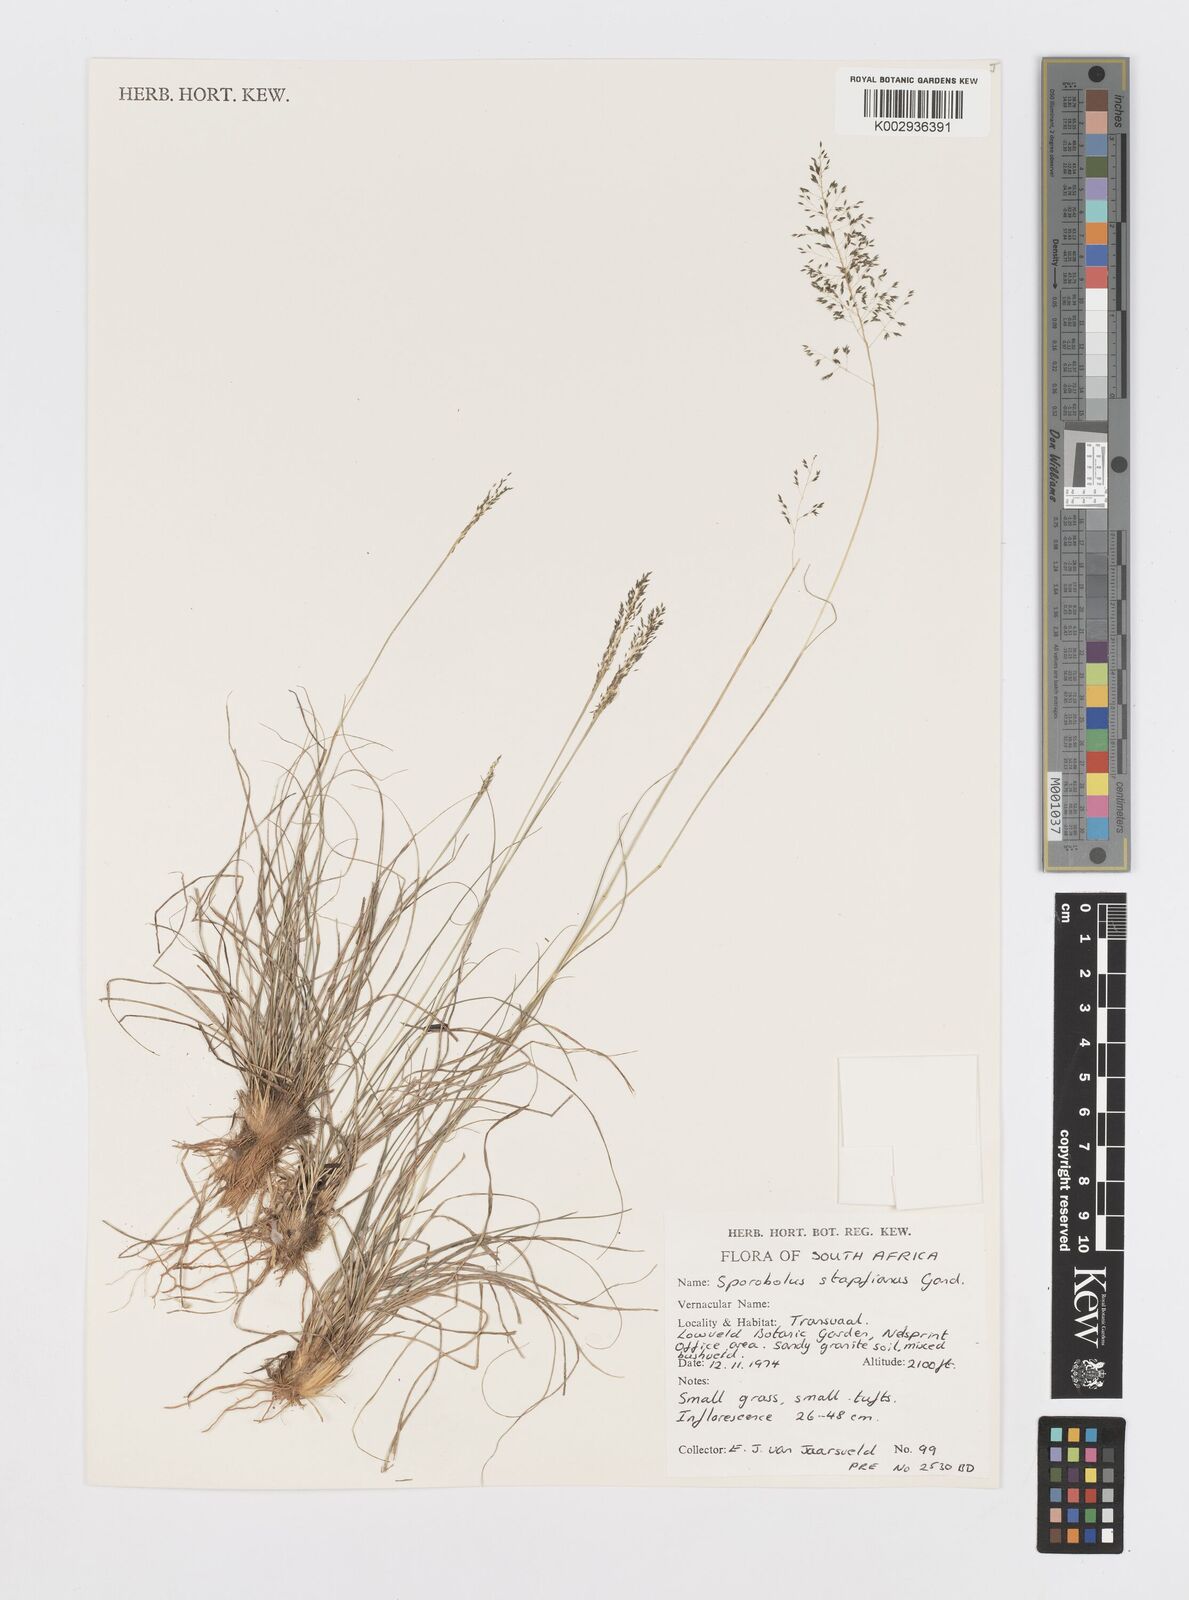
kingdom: Plantae
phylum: Tracheophyta
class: Liliopsida
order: Poales
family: Poaceae
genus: Sporobolus
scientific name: Sporobolus stapfianus
